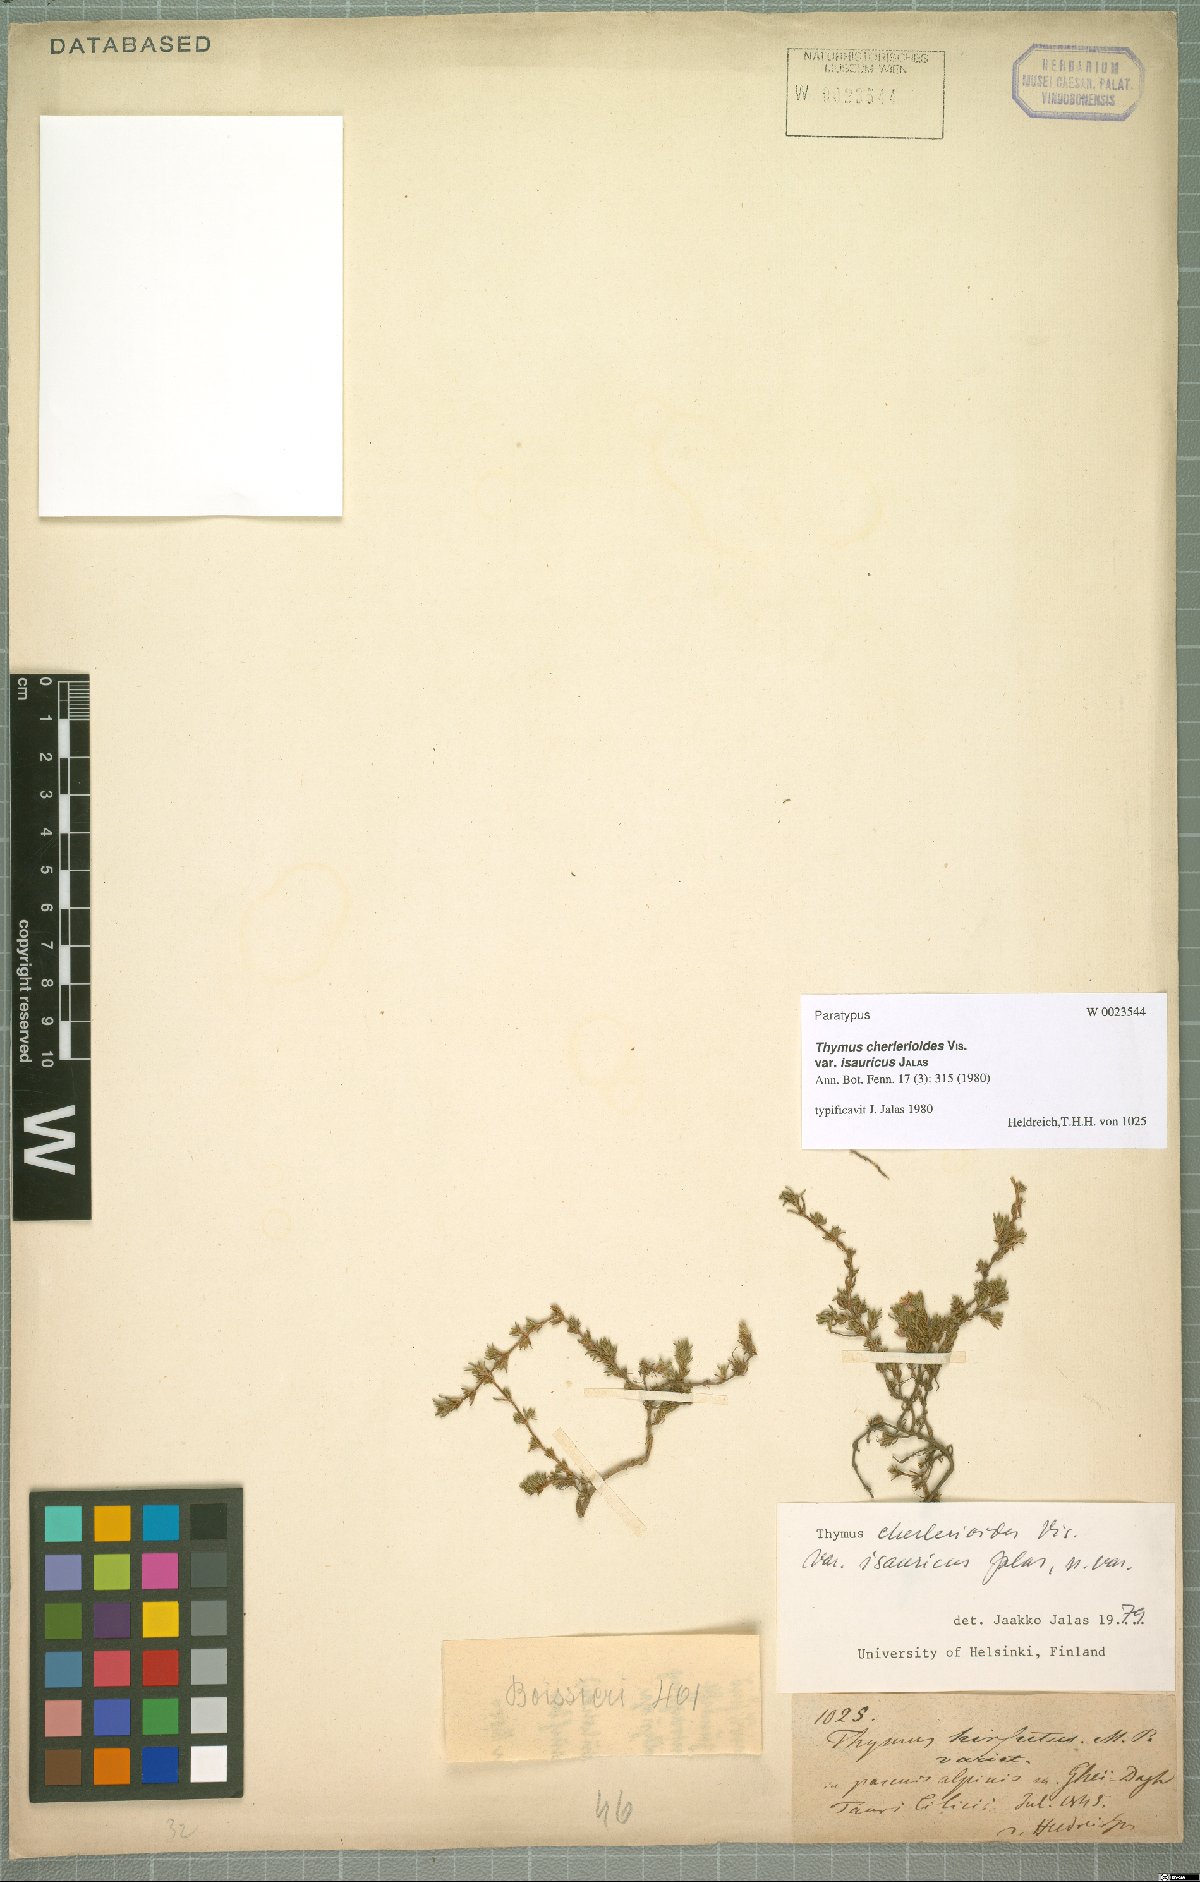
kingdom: Plantae
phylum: Tracheophyta
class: Magnoliopsida
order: Lamiales
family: Lamiaceae
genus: Thymus
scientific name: Thymus cherlerioides
